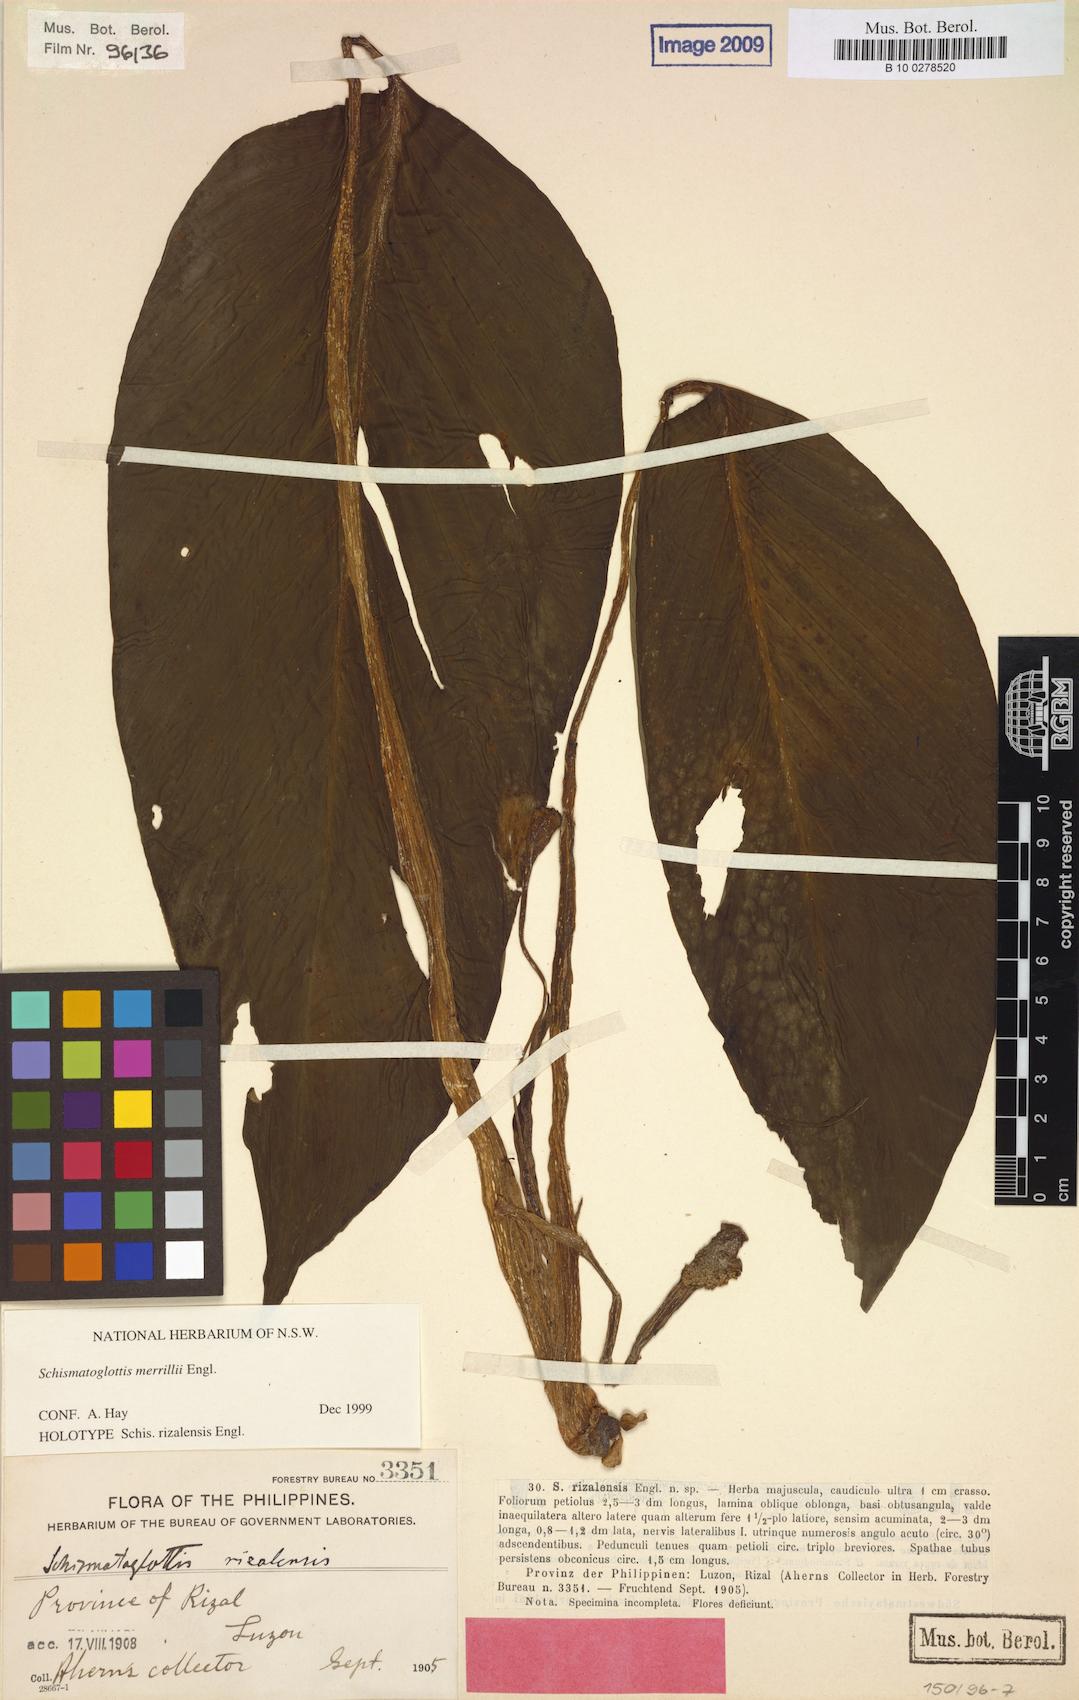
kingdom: Plantae
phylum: Tracheophyta
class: Liliopsida
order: Alismatales
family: Araceae
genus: Schismatoglottis
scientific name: Schismatoglottis merrillii
